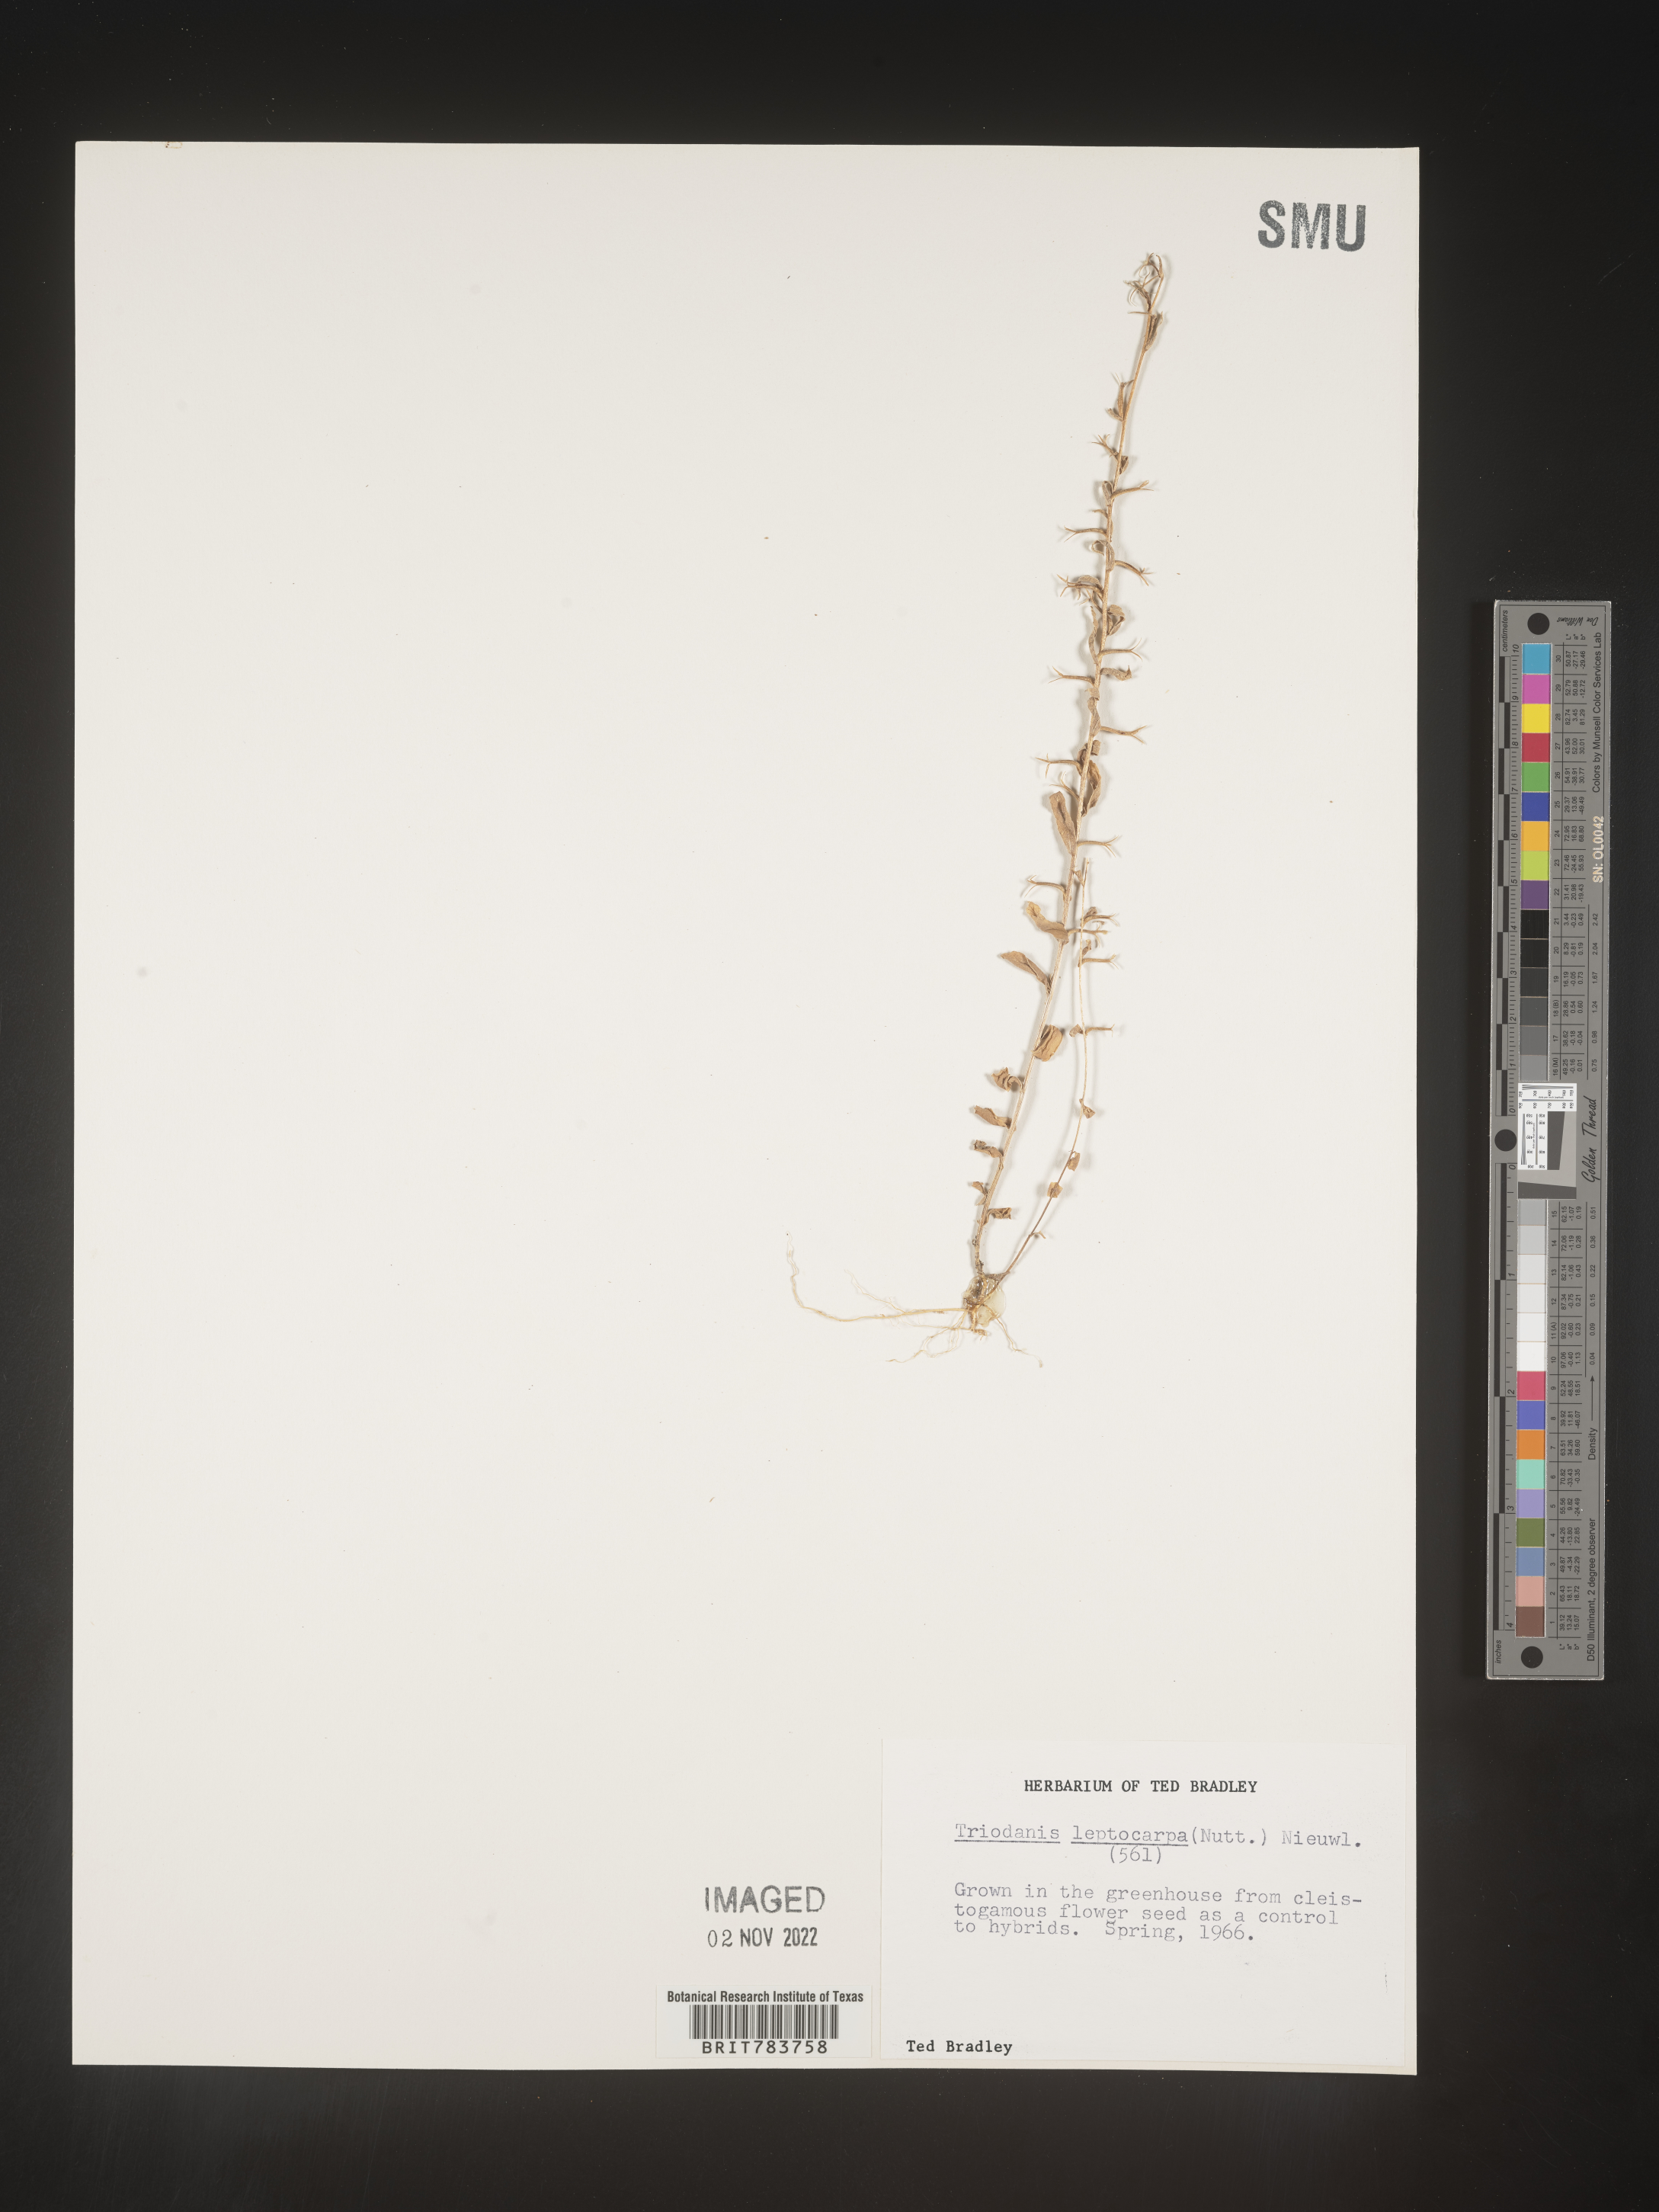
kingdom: Plantae
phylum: Tracheophyta
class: Magnoliopsida
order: Asterales
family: Campanulaceae
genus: Triodanis
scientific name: Triodanis
